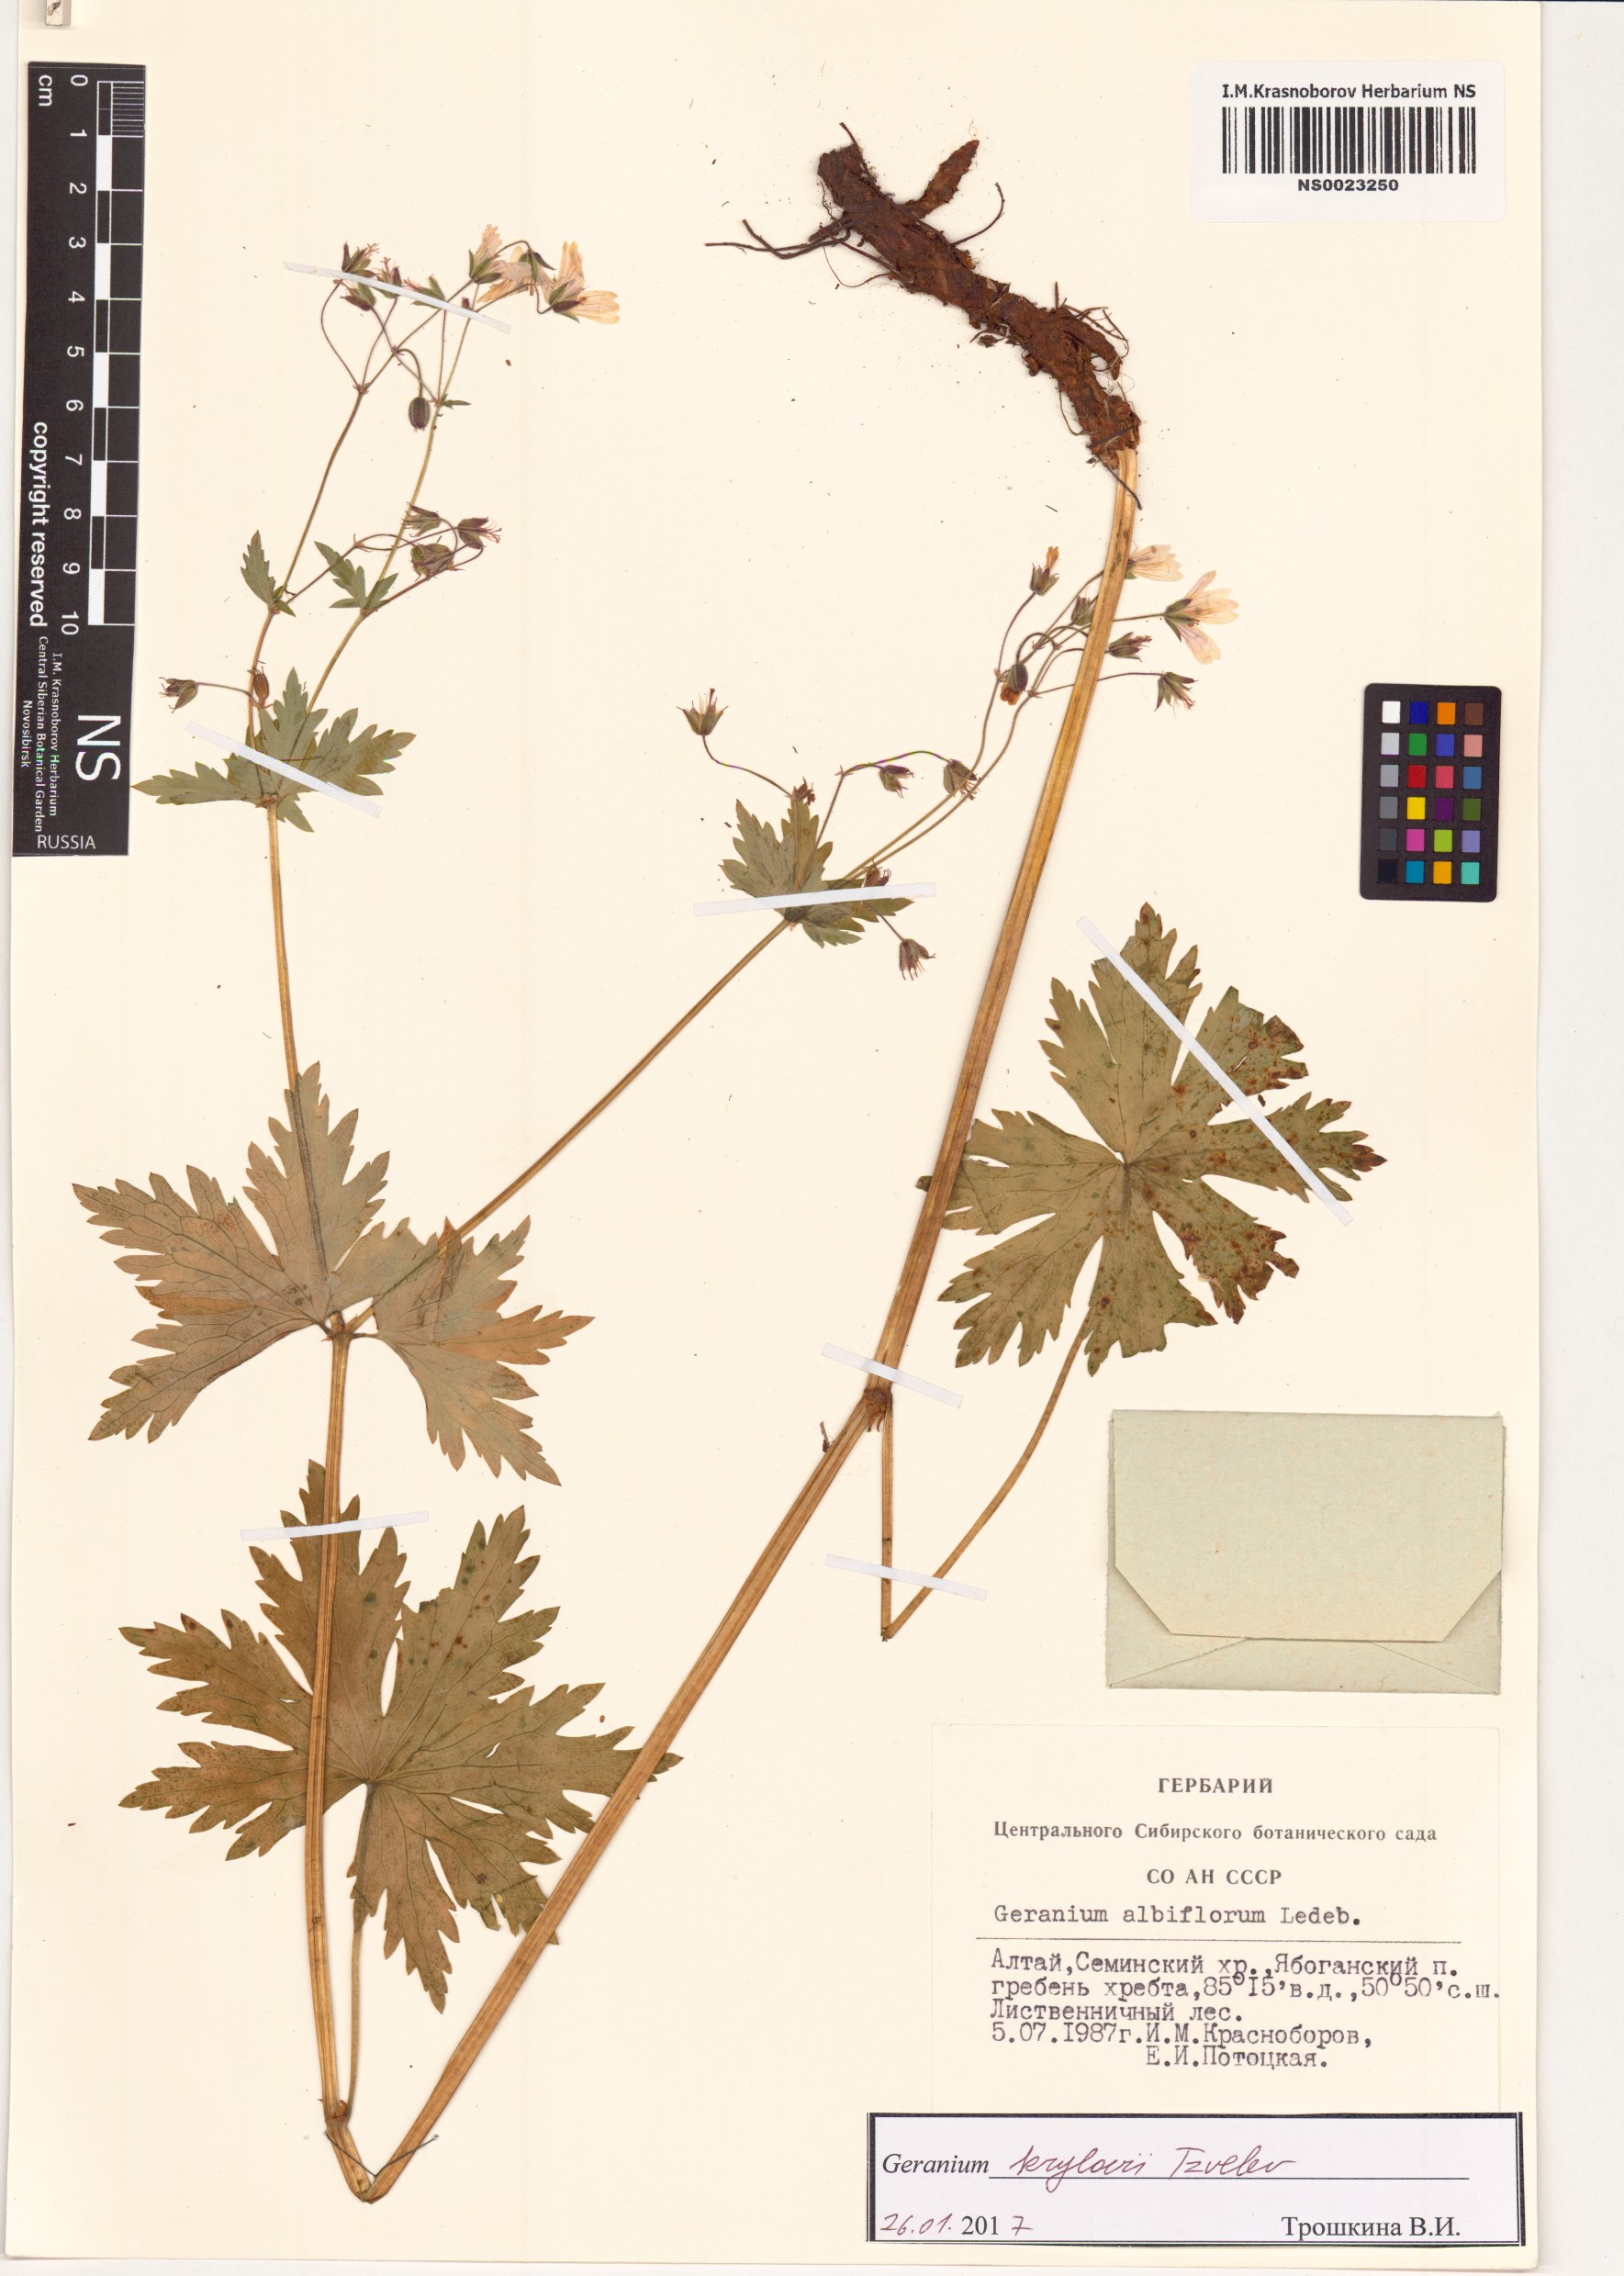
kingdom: Plantae
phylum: Tracheophyta
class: Magnoliopsida
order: Geraniales
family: Geraniaceae
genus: Geranium
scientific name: Geranium sylvaticum
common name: Wood crane's-bill
